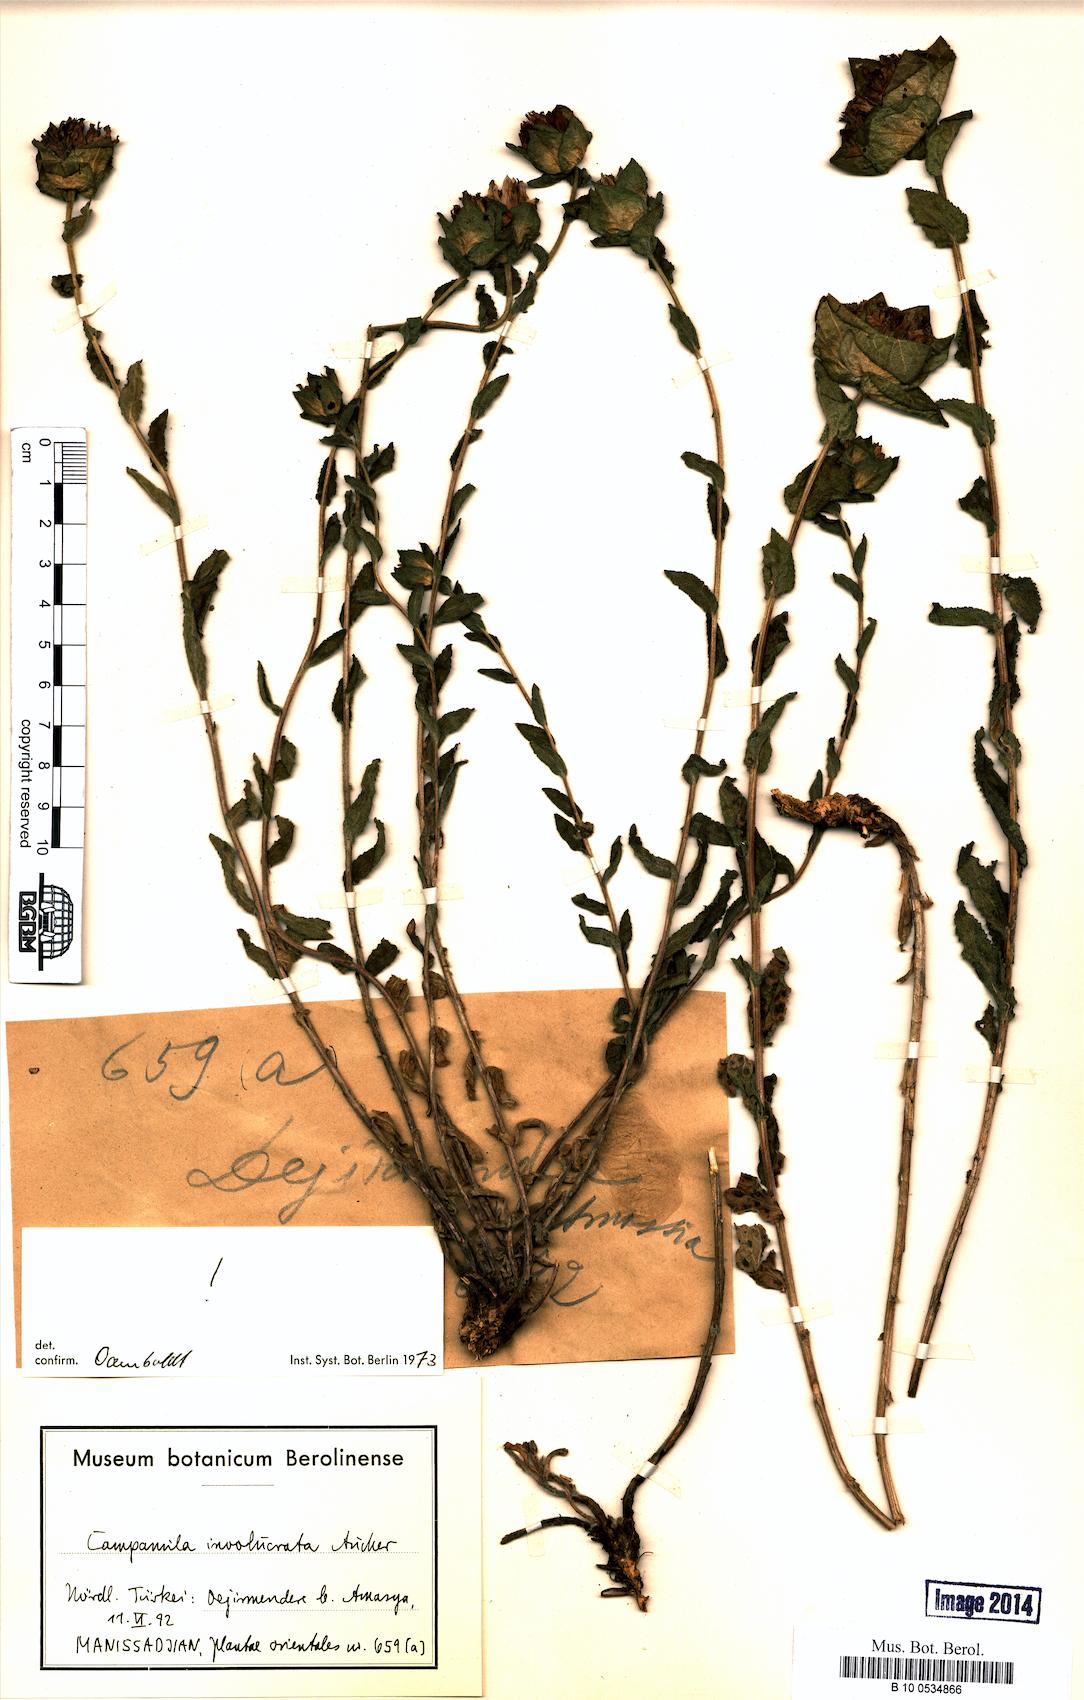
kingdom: Plantae
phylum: Tracheophyta
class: Magnoliopsida
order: Asterales
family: Campanulaceae
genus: Campanula
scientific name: Campanula involucrata
